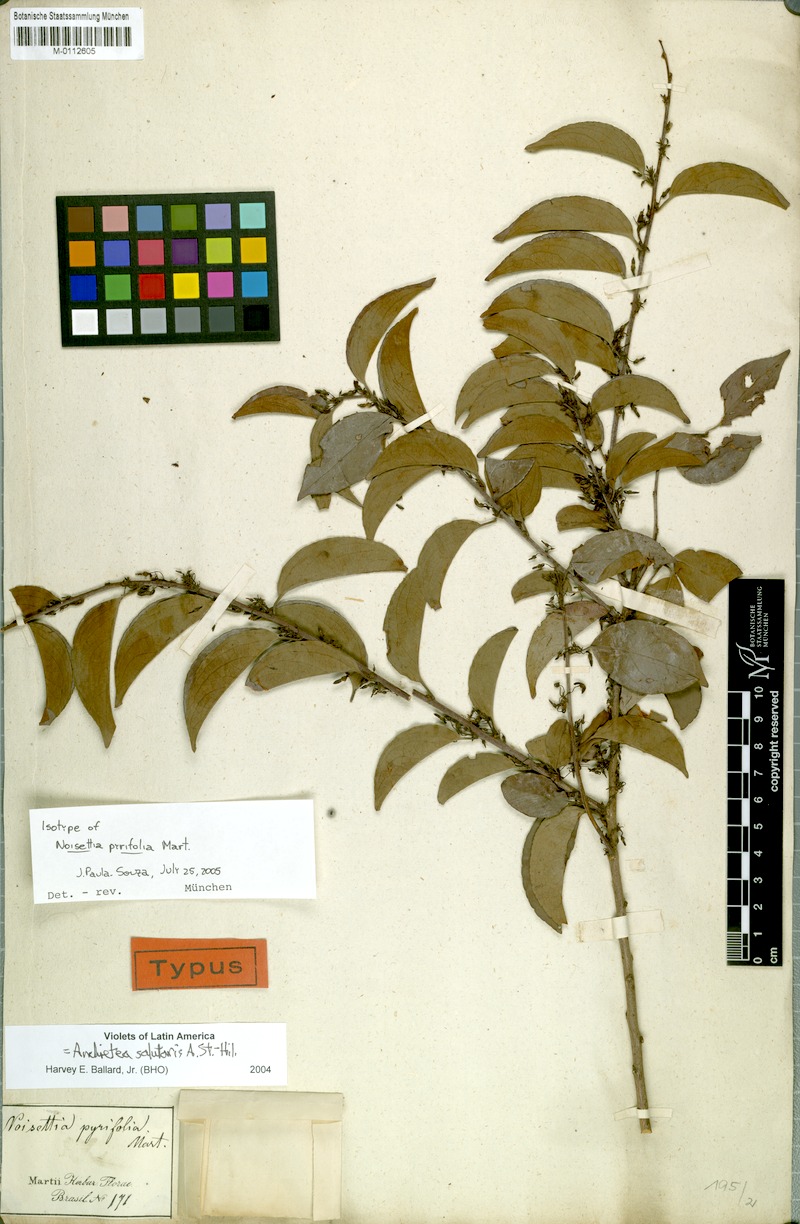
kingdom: Plantae
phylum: Tracheophyta
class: Magnoliopsida
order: Malpighiales
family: Violaceae
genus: Anchietea
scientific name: Anchietea pyrifolia
